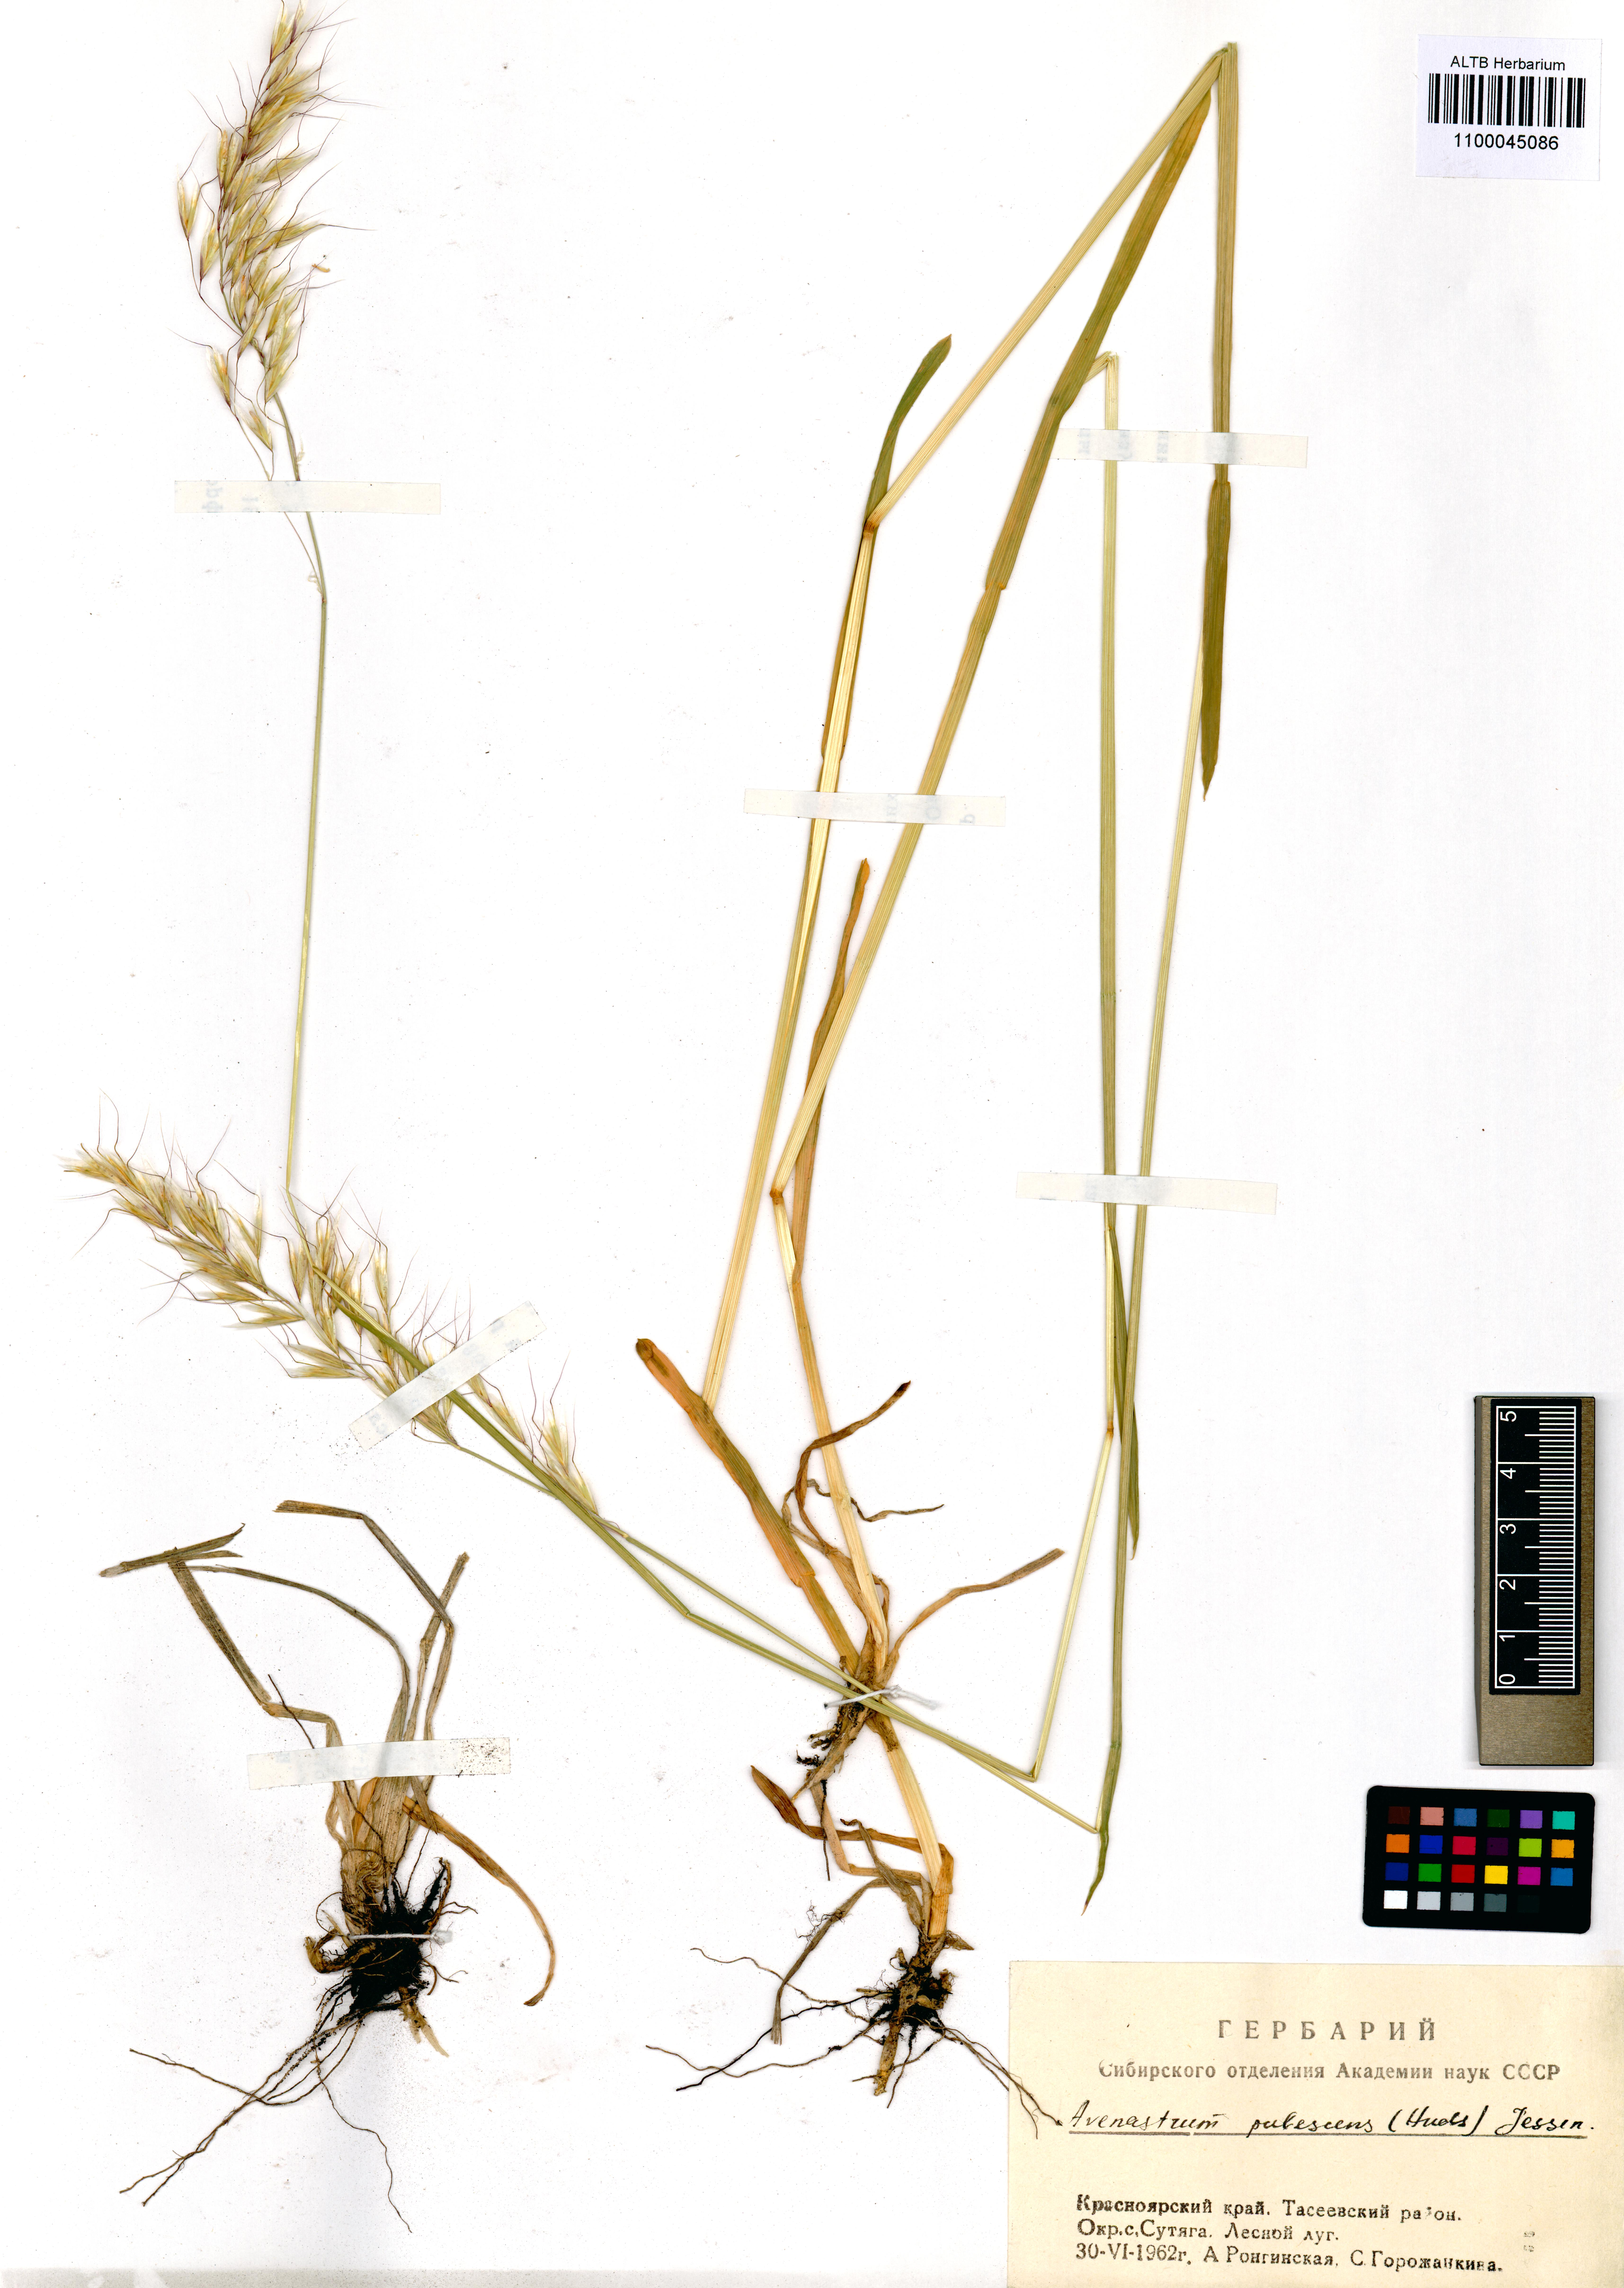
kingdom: Plantae
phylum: Tracheophyta
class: Liliopsida
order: Poales
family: Poaceae
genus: Avenula
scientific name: Avenula pubescens
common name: Downy alpine oatgrass
